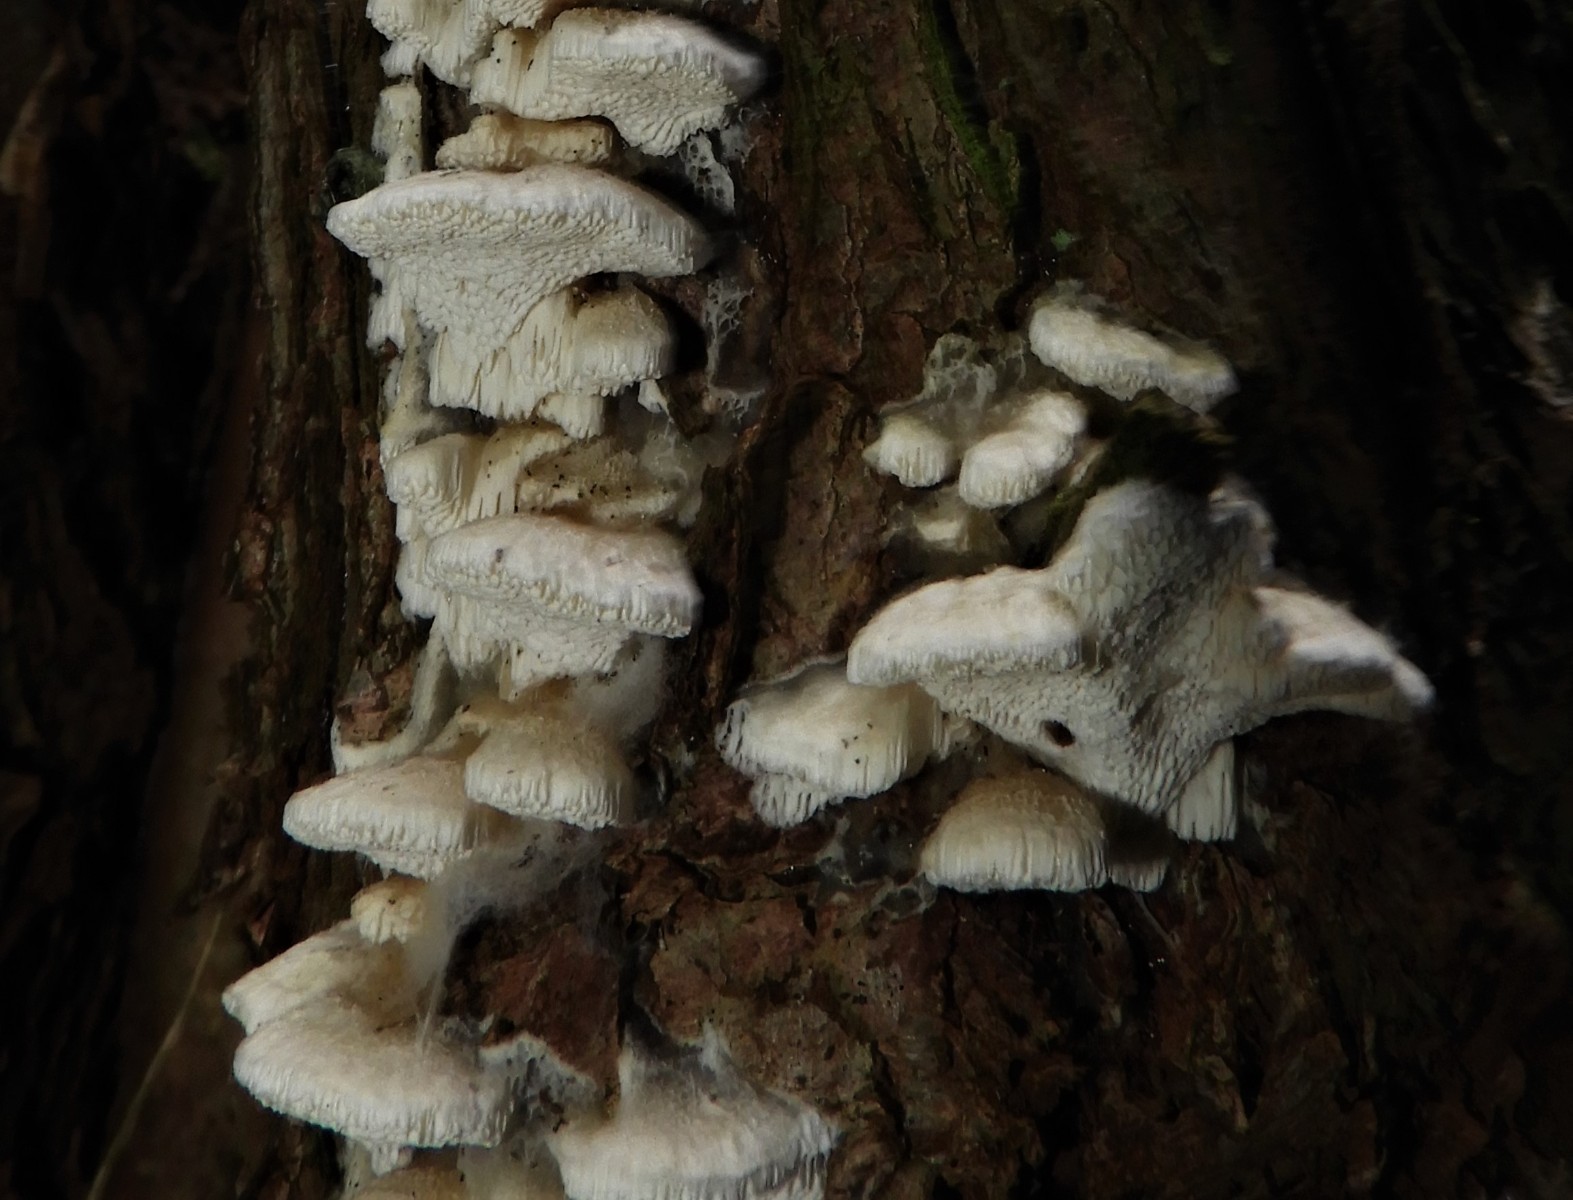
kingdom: Fungi
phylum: Basidiomycota
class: Agaricomycetes
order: Hymenochaetales
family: Oxyporaceae
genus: Oxyporus
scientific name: Oxyporus cuneatus
